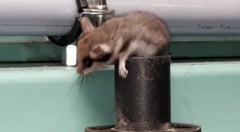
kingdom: Animalia
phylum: Chordata
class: Mammalia
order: Rodentia
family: Gliridae
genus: Eliomys
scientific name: Eliomys quercinus
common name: Garden dormouse
